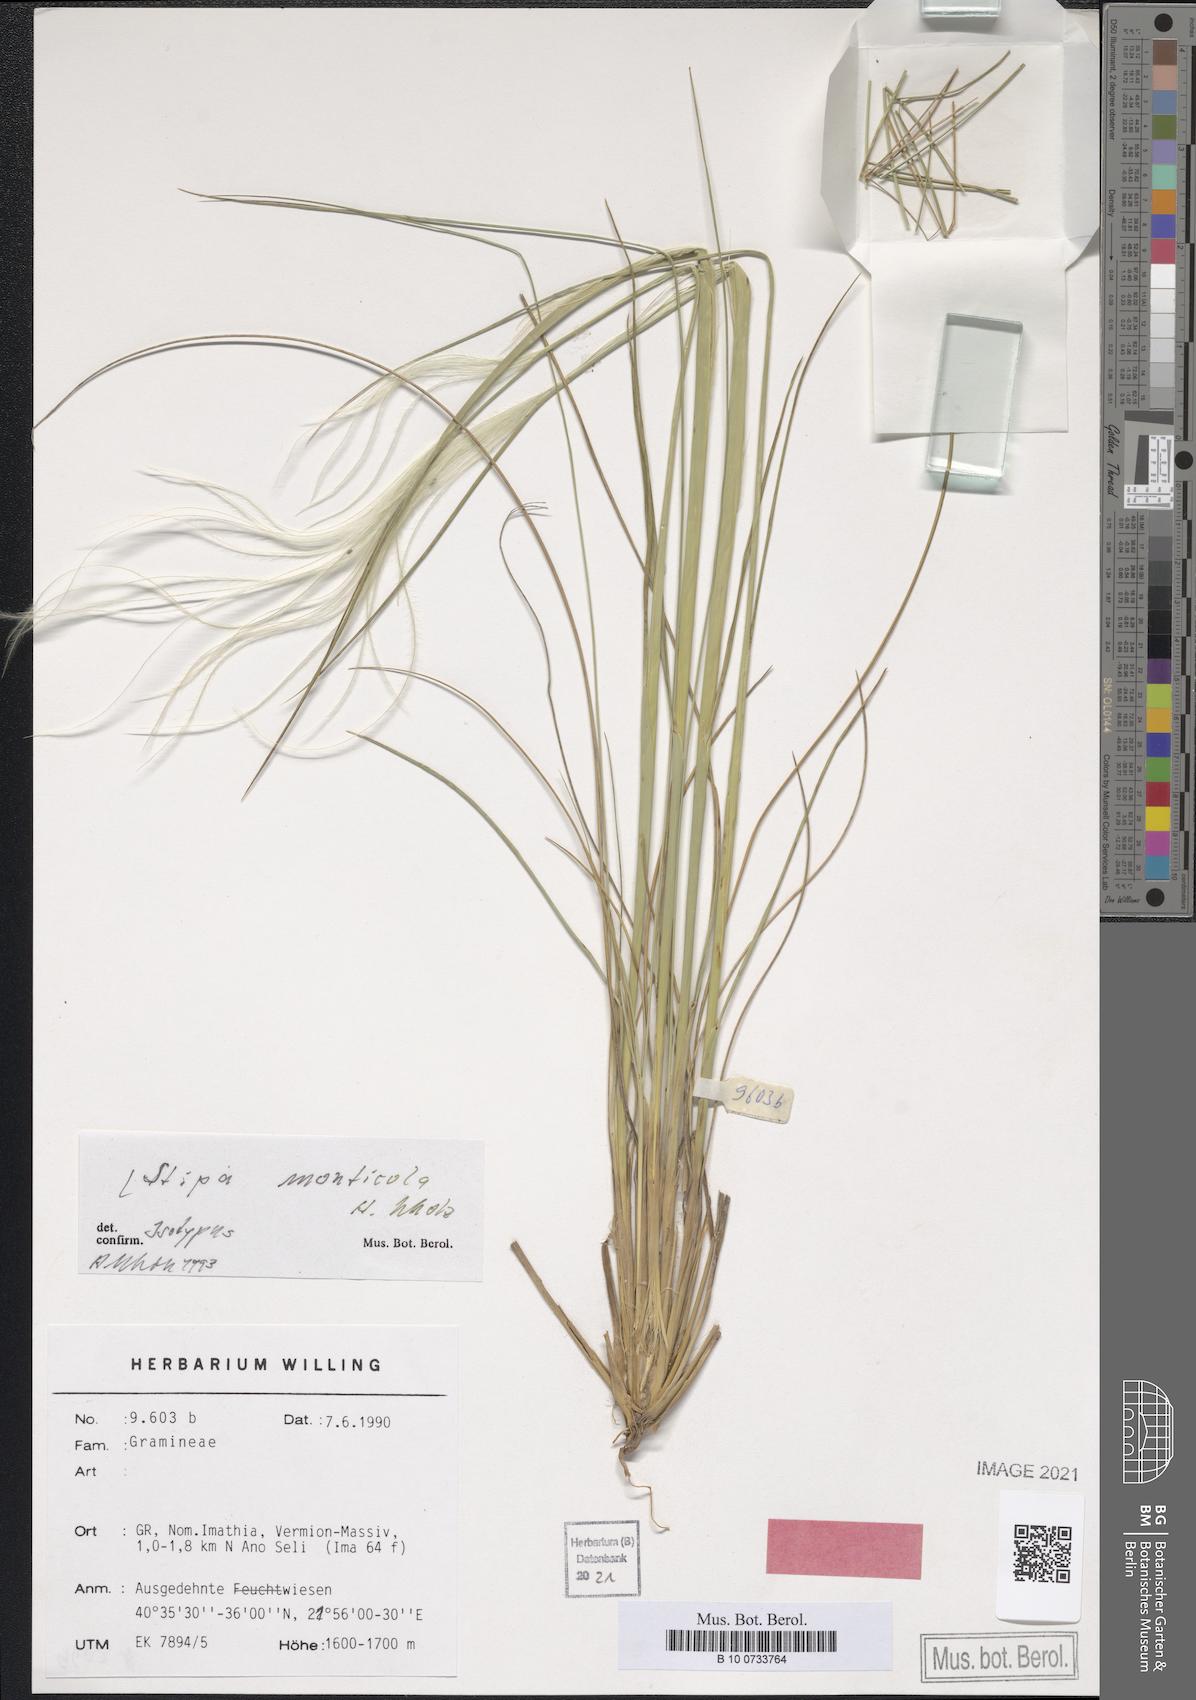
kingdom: Plantae
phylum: Tracheophyta
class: Liliopsida
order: Poales
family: Poaceae
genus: Stipa
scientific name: Stipa endotricha
